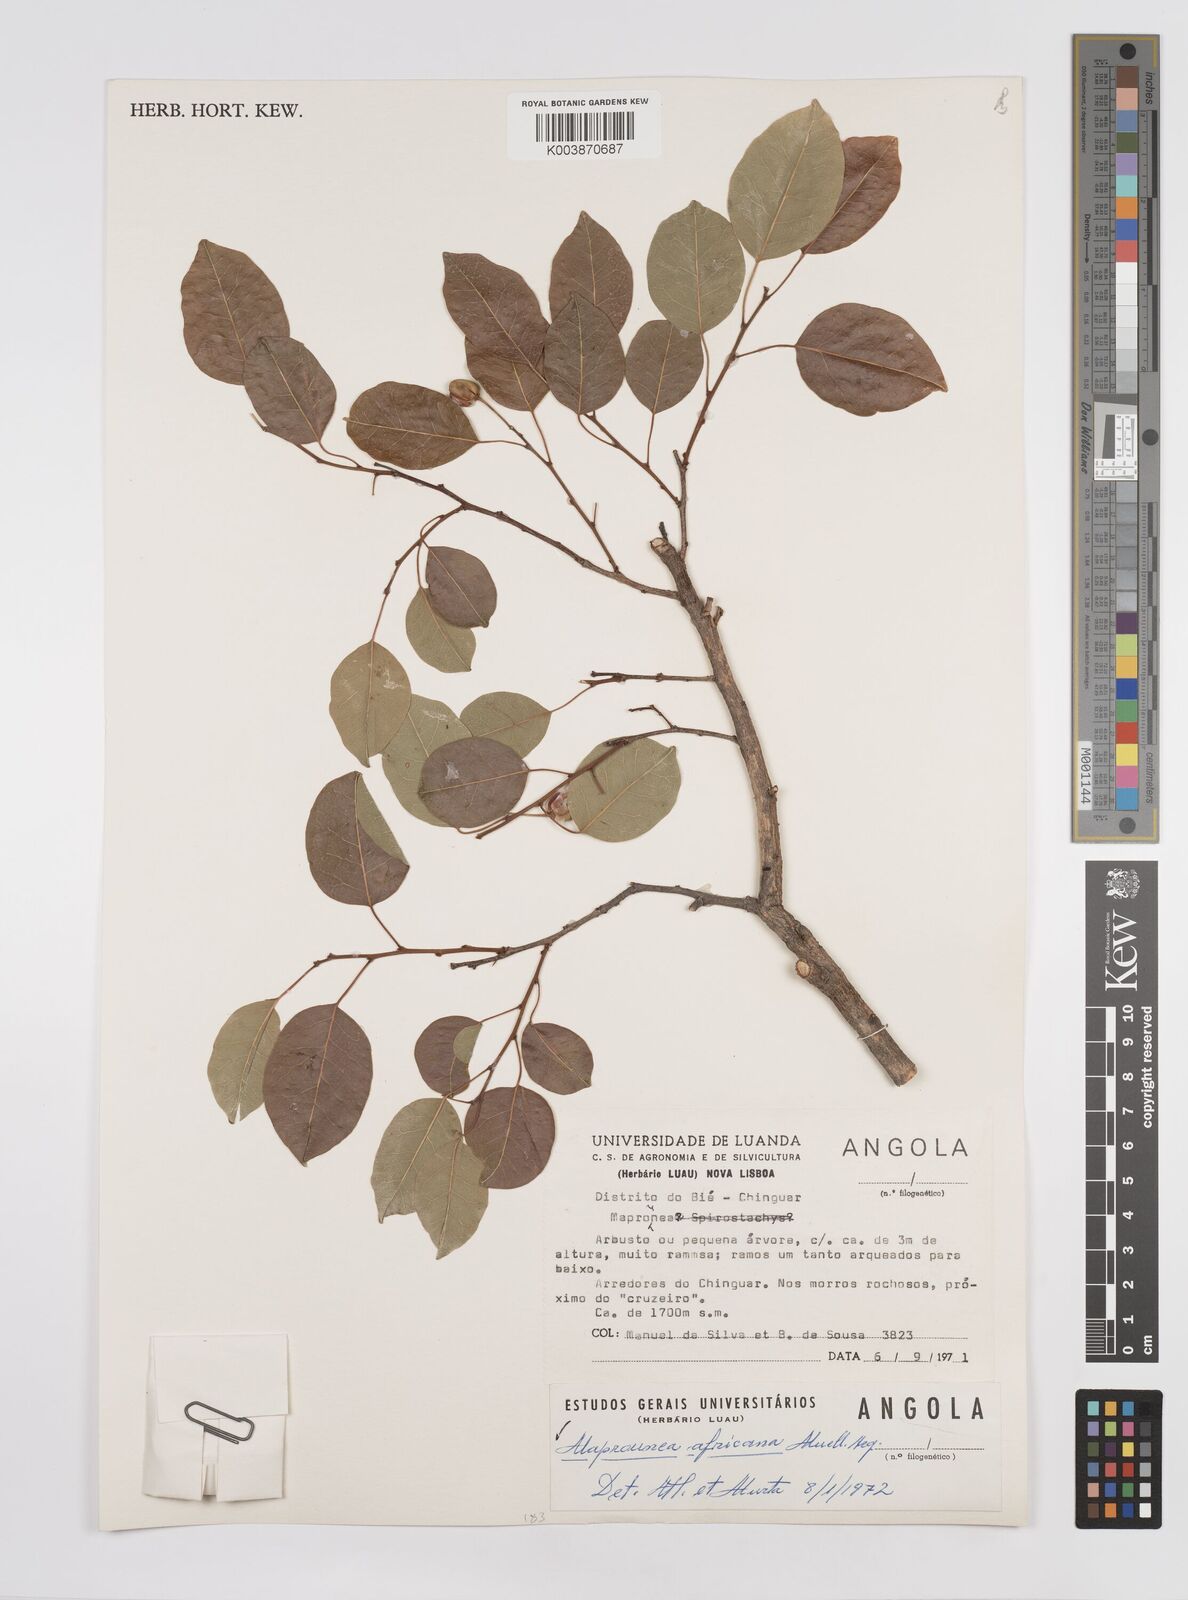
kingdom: Plantae
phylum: Tracheophyta
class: Magnoliopsida
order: Malpighiales
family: Euphorbiaceae
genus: Maprounea
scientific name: Maprounea africana
